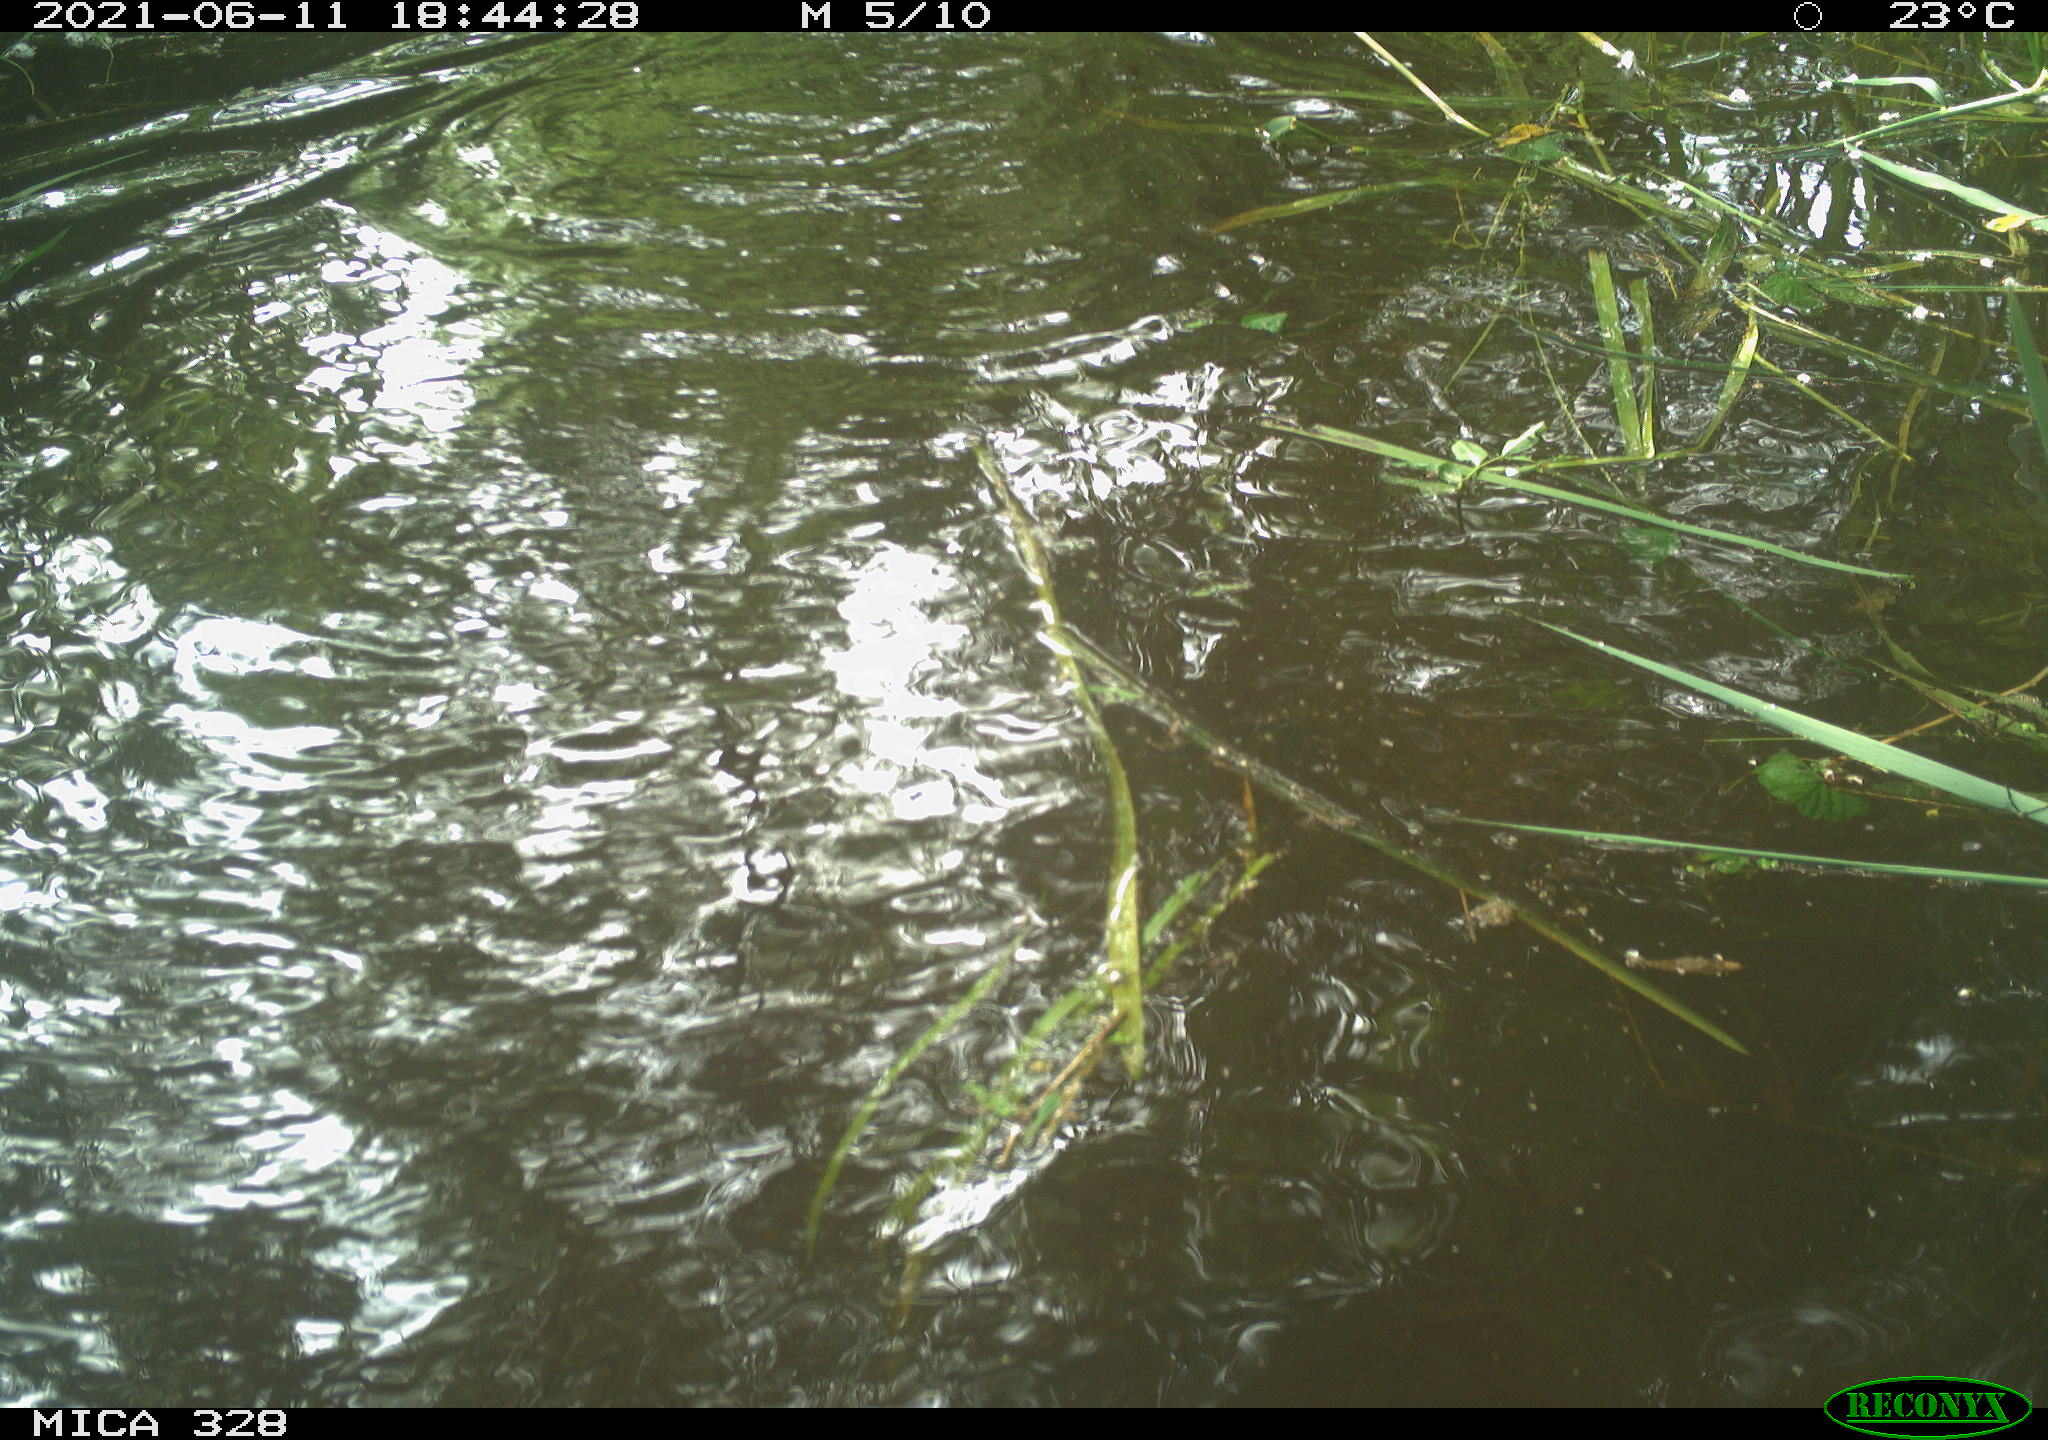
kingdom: Animalia
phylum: Chordata
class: Mammalia
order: Rodentia
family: Cricetidae
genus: Ondatra
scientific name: Ondatra zibethicus
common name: Muskrat
